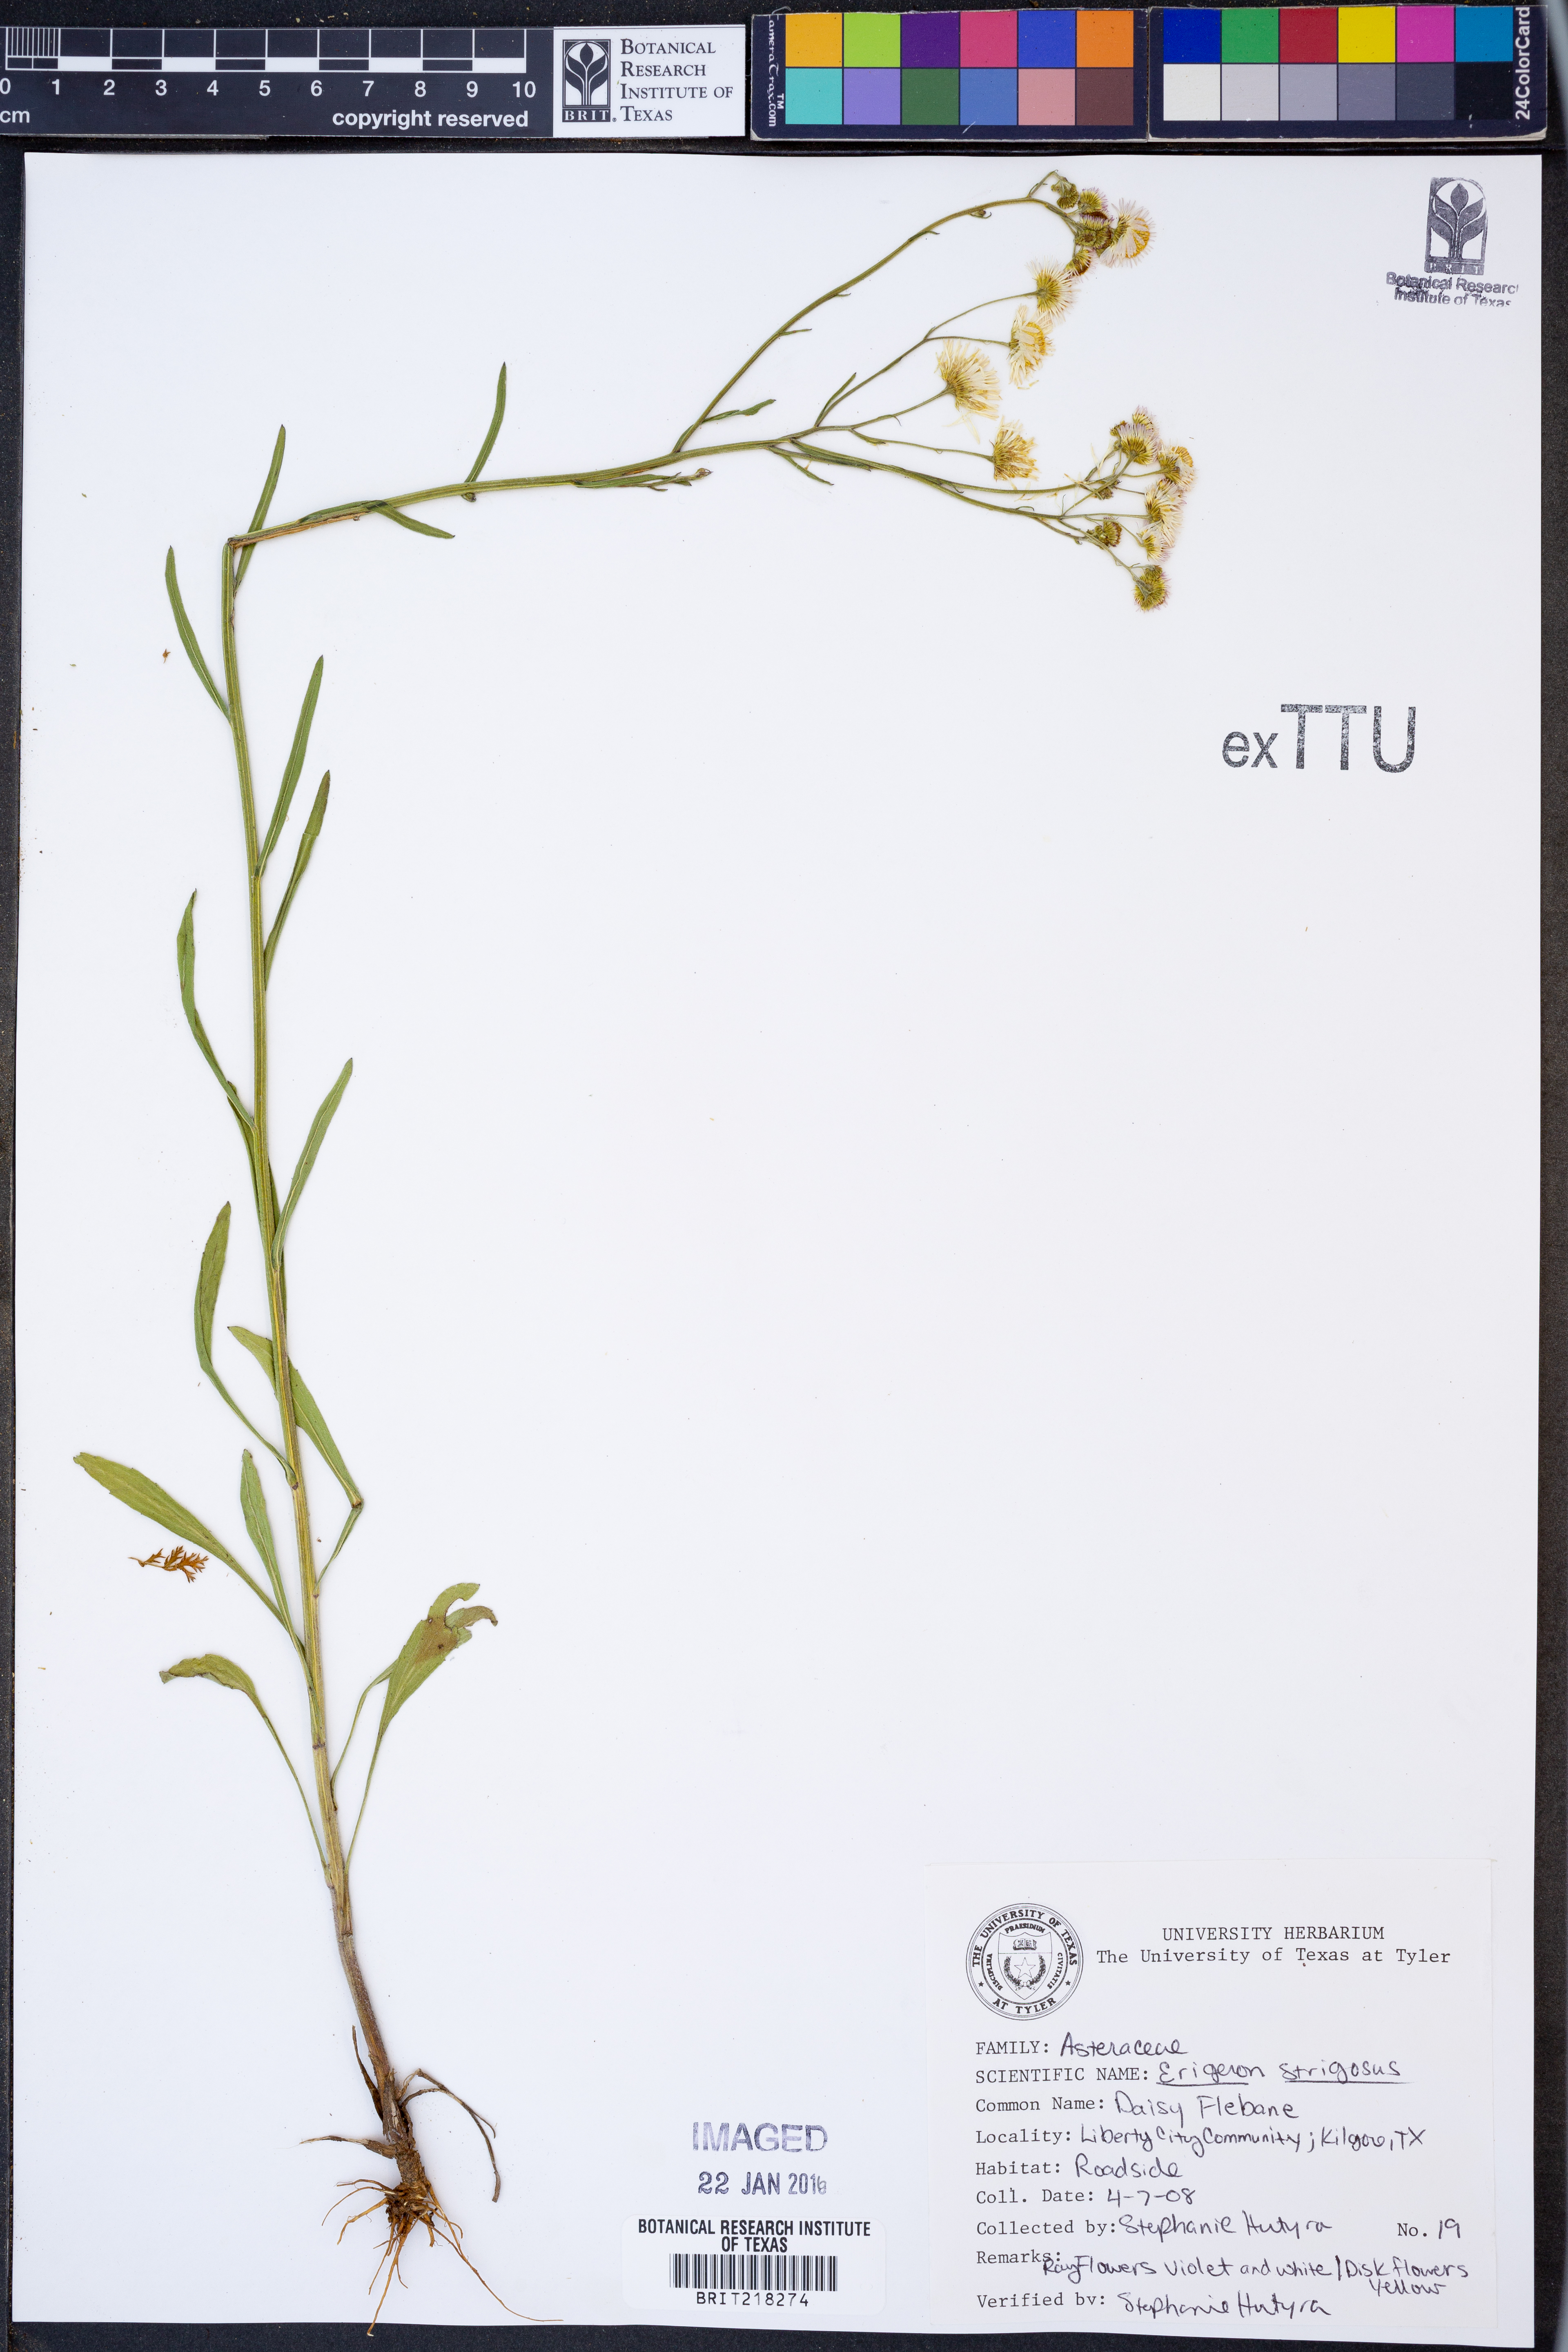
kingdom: Plantae
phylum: Tracheophyta
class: Magnoliopsida
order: Asterales
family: Asteraceae
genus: Erigeron
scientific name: Erigeron strigosus
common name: Common eastern fleabane
